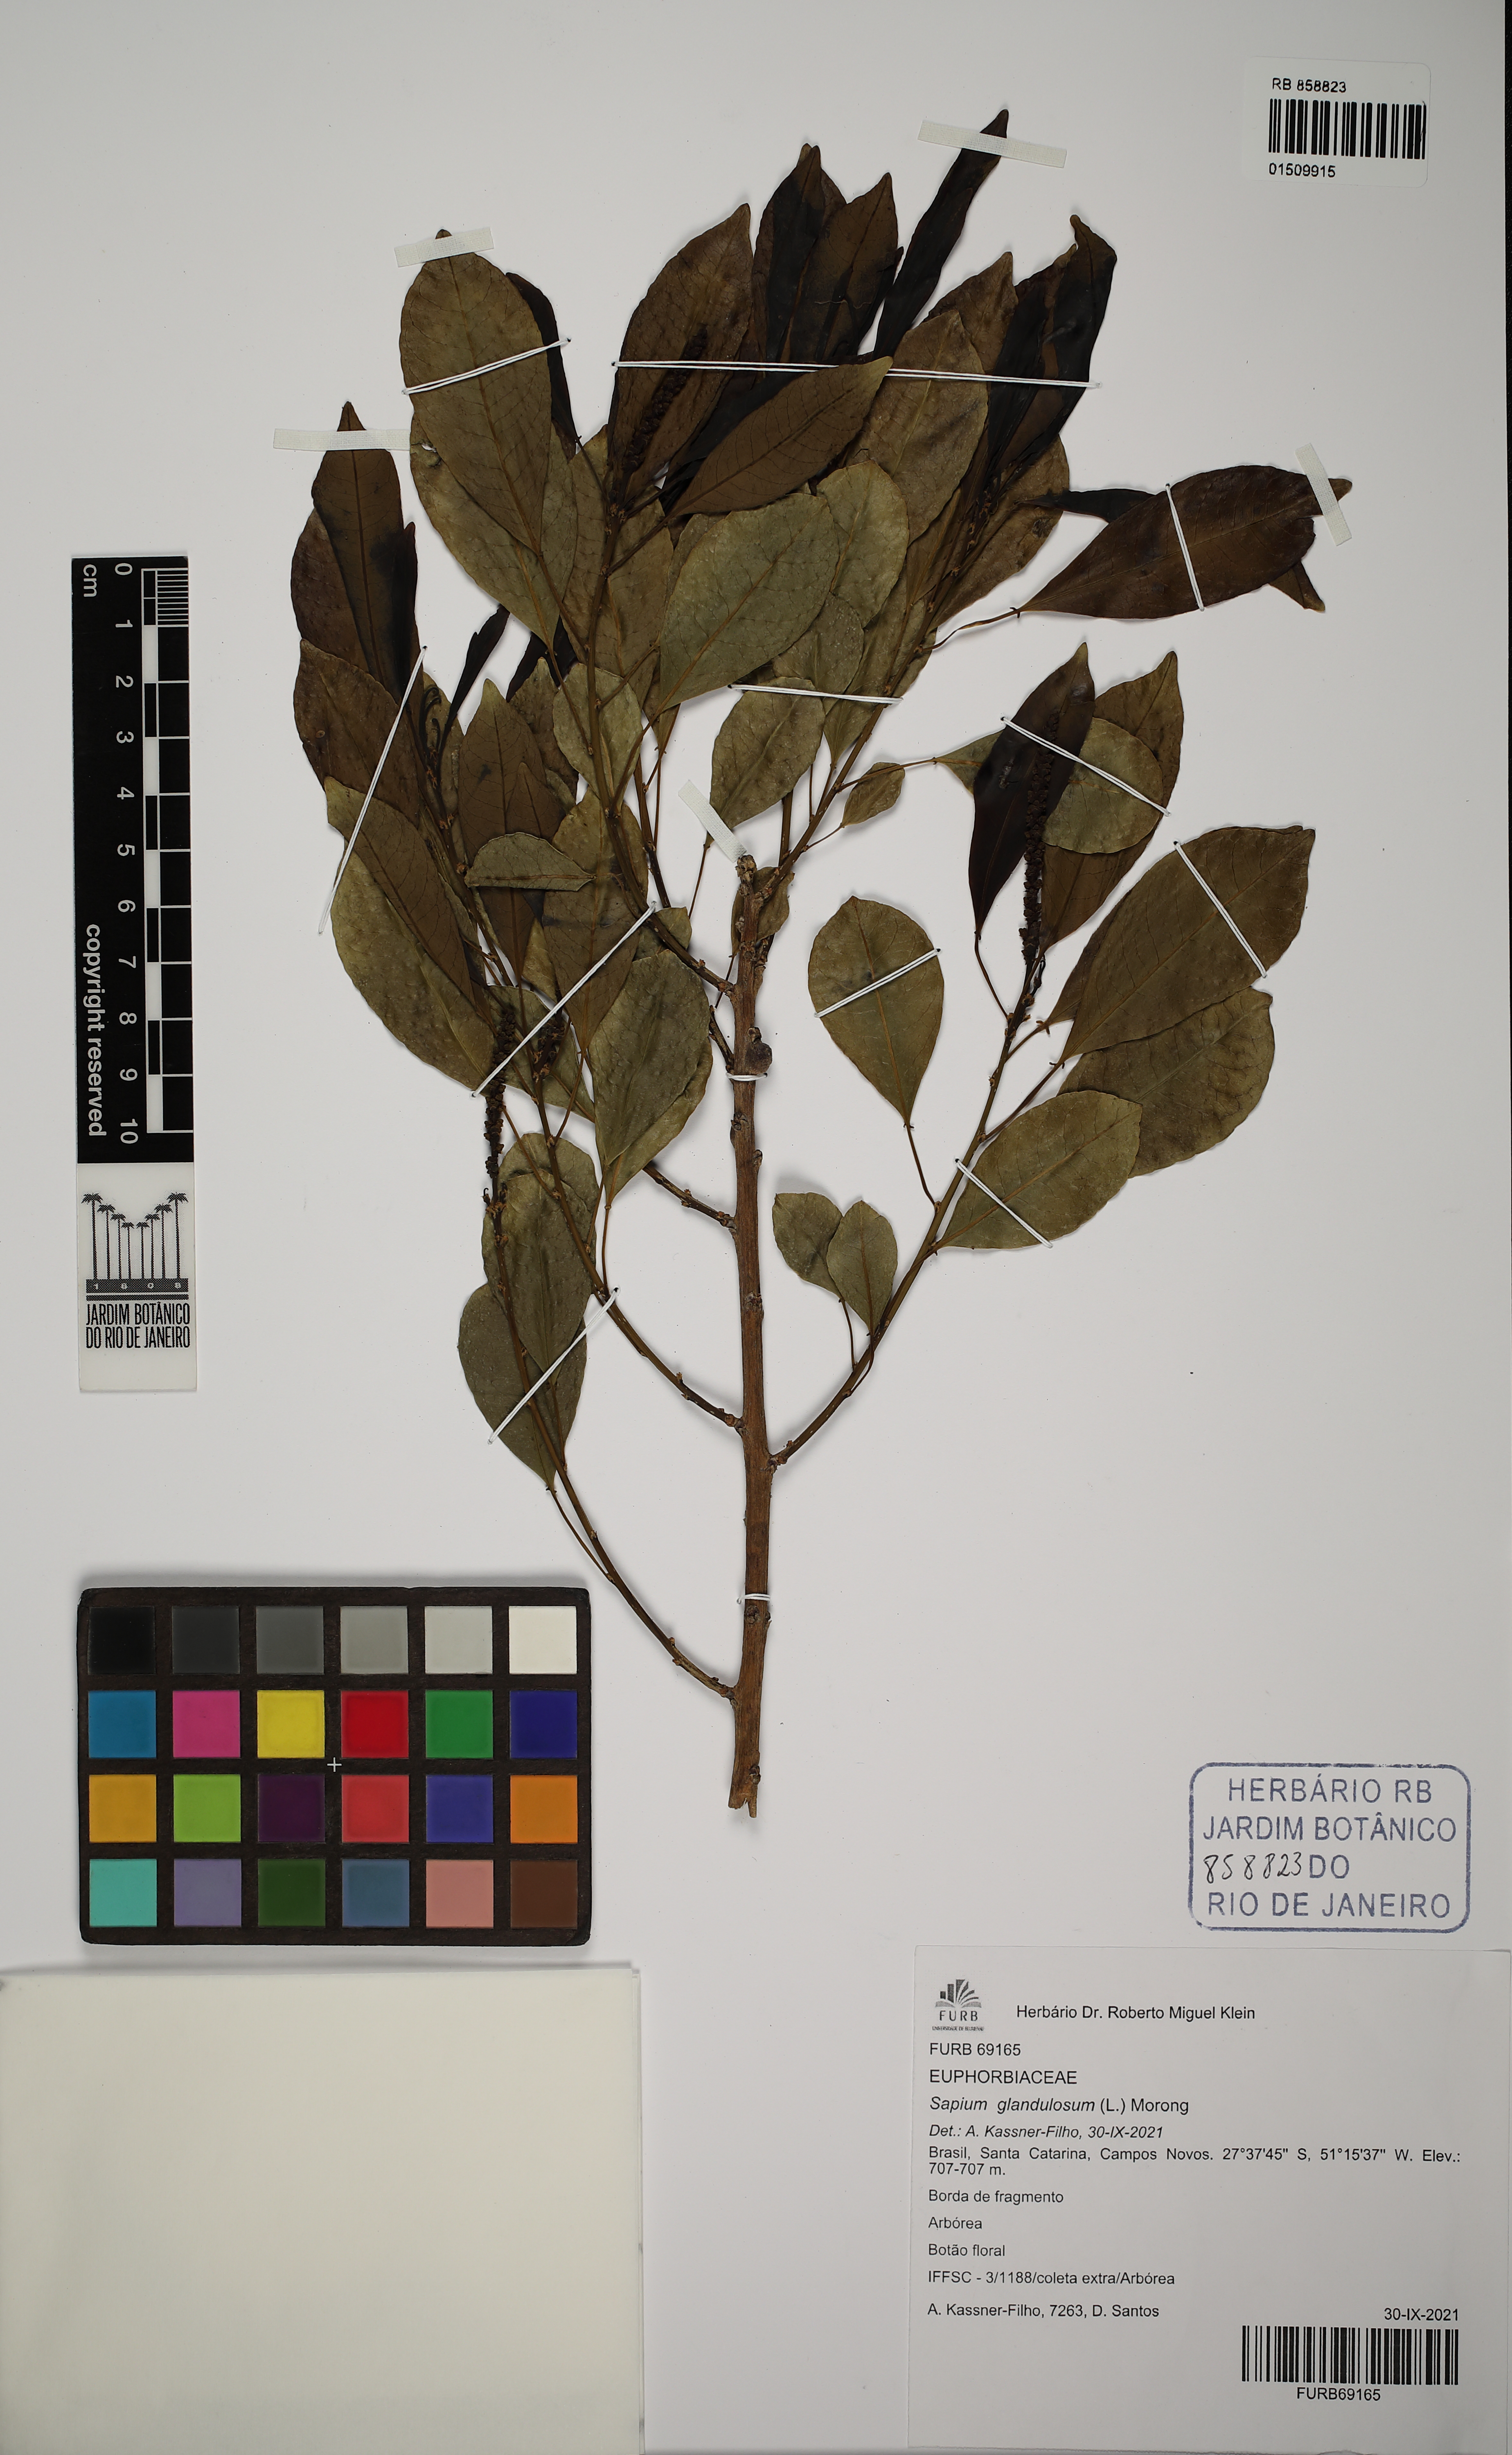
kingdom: Plantae
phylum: Tracheophyta
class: Magnoliopsida
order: Malpighiales
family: Euphorbiaceae
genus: Sapium
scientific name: Sapium glandulosum
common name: Milktree
